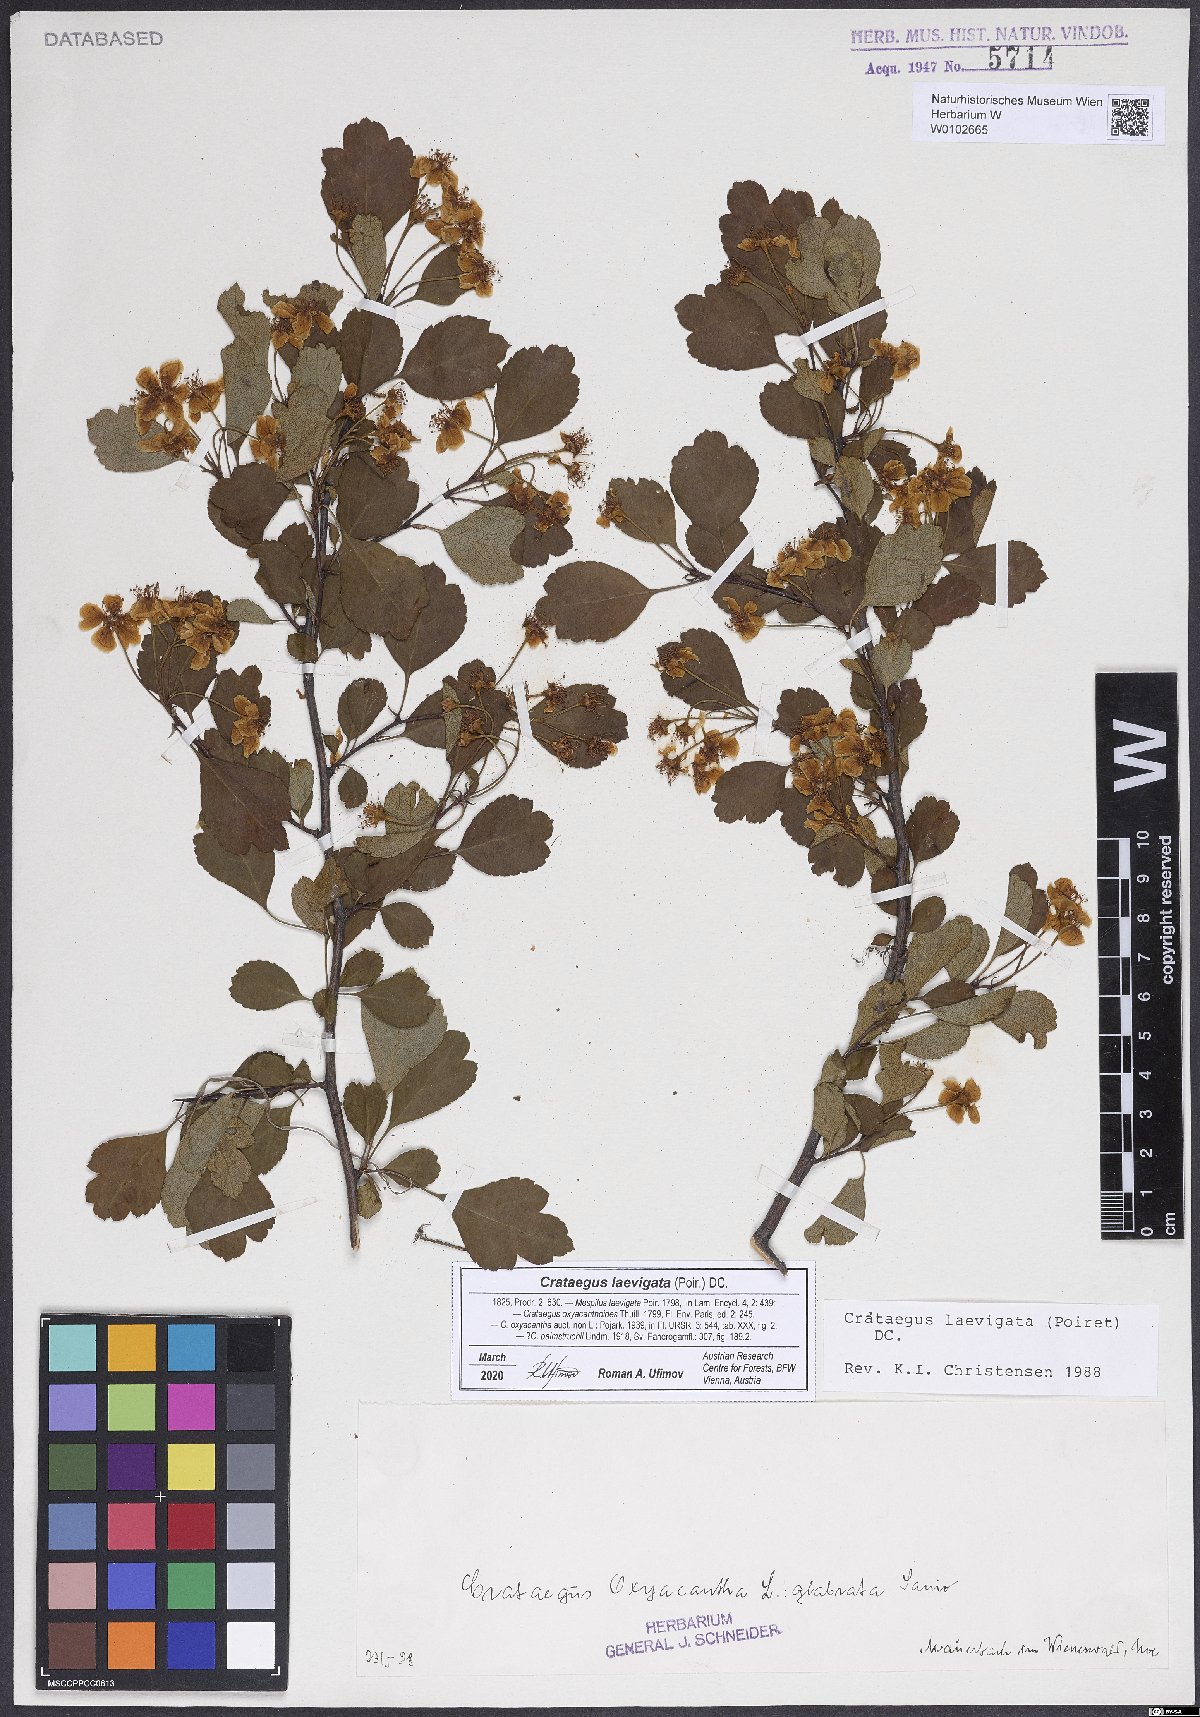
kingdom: Plantae
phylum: Tracheophyta
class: Magnoliopsida
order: Rosales
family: Rosaceae
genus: Crataegus
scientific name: Crataegus laevigata
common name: Midland hawthorn
